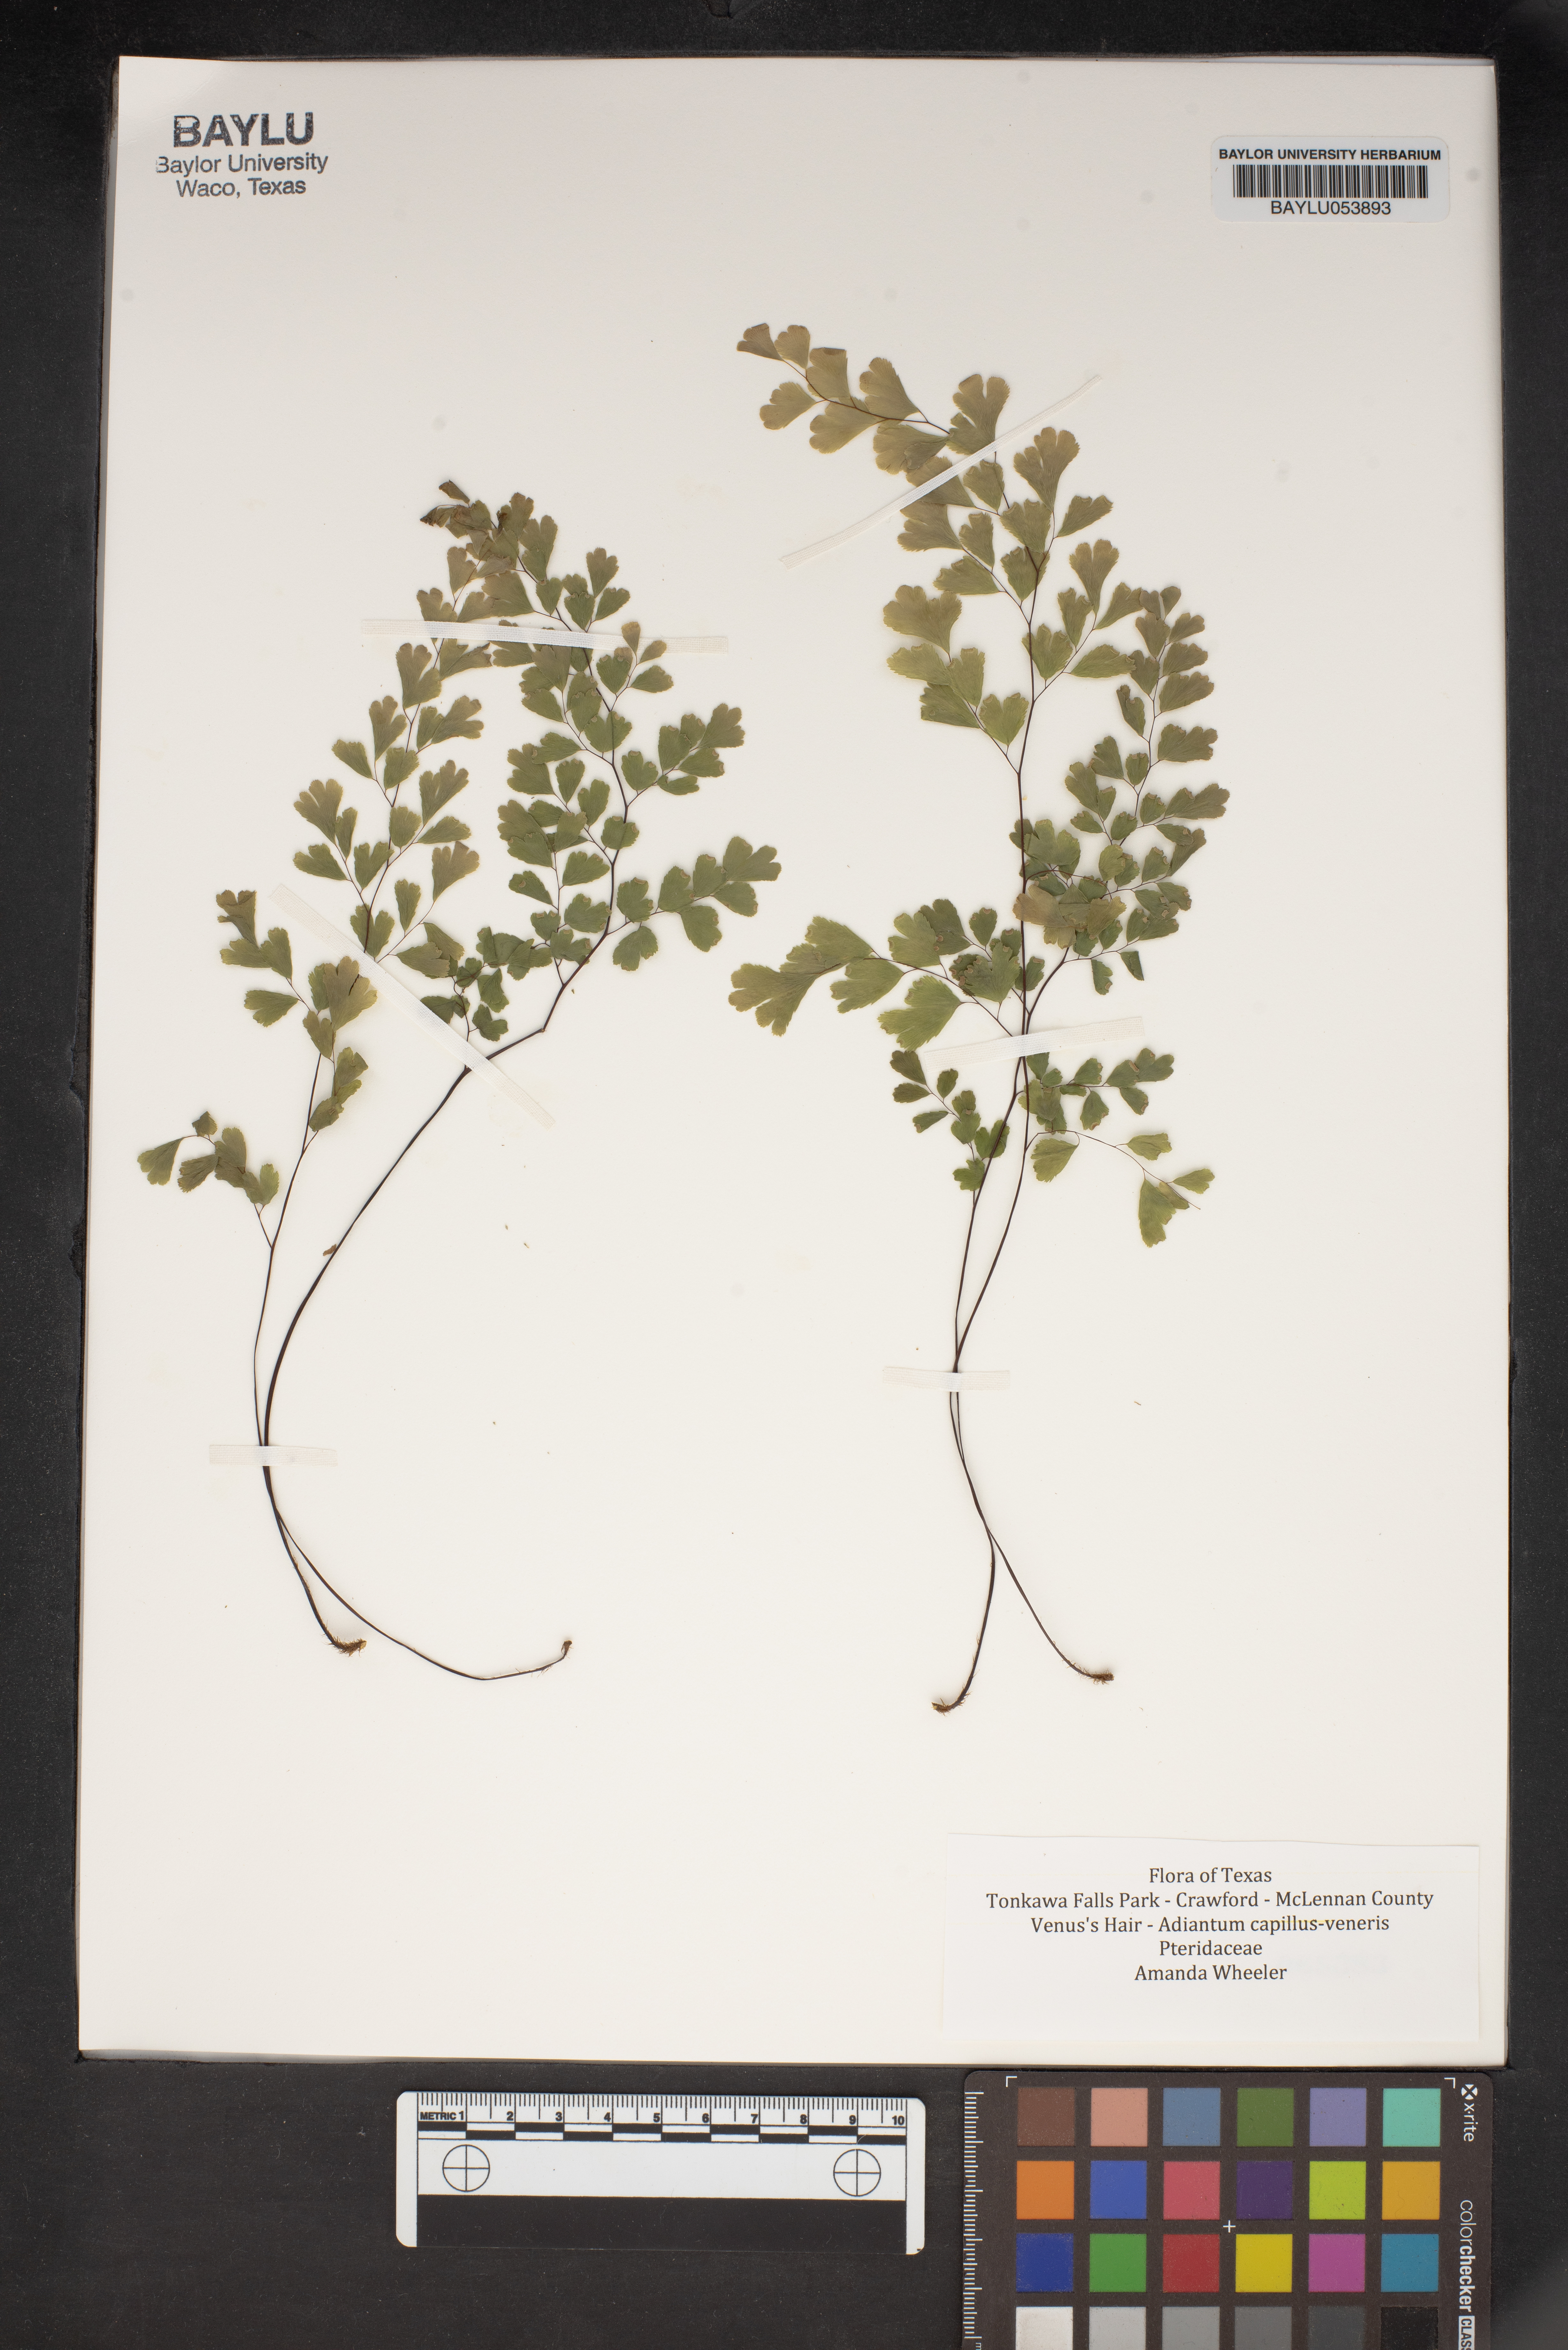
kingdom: Plantae
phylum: Tracheophyta
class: Polypodiopsida
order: Polypodiales
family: Pteridaceae
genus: Adiantum
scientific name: Adiantum capillus-veneris
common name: Maidenhair fern
